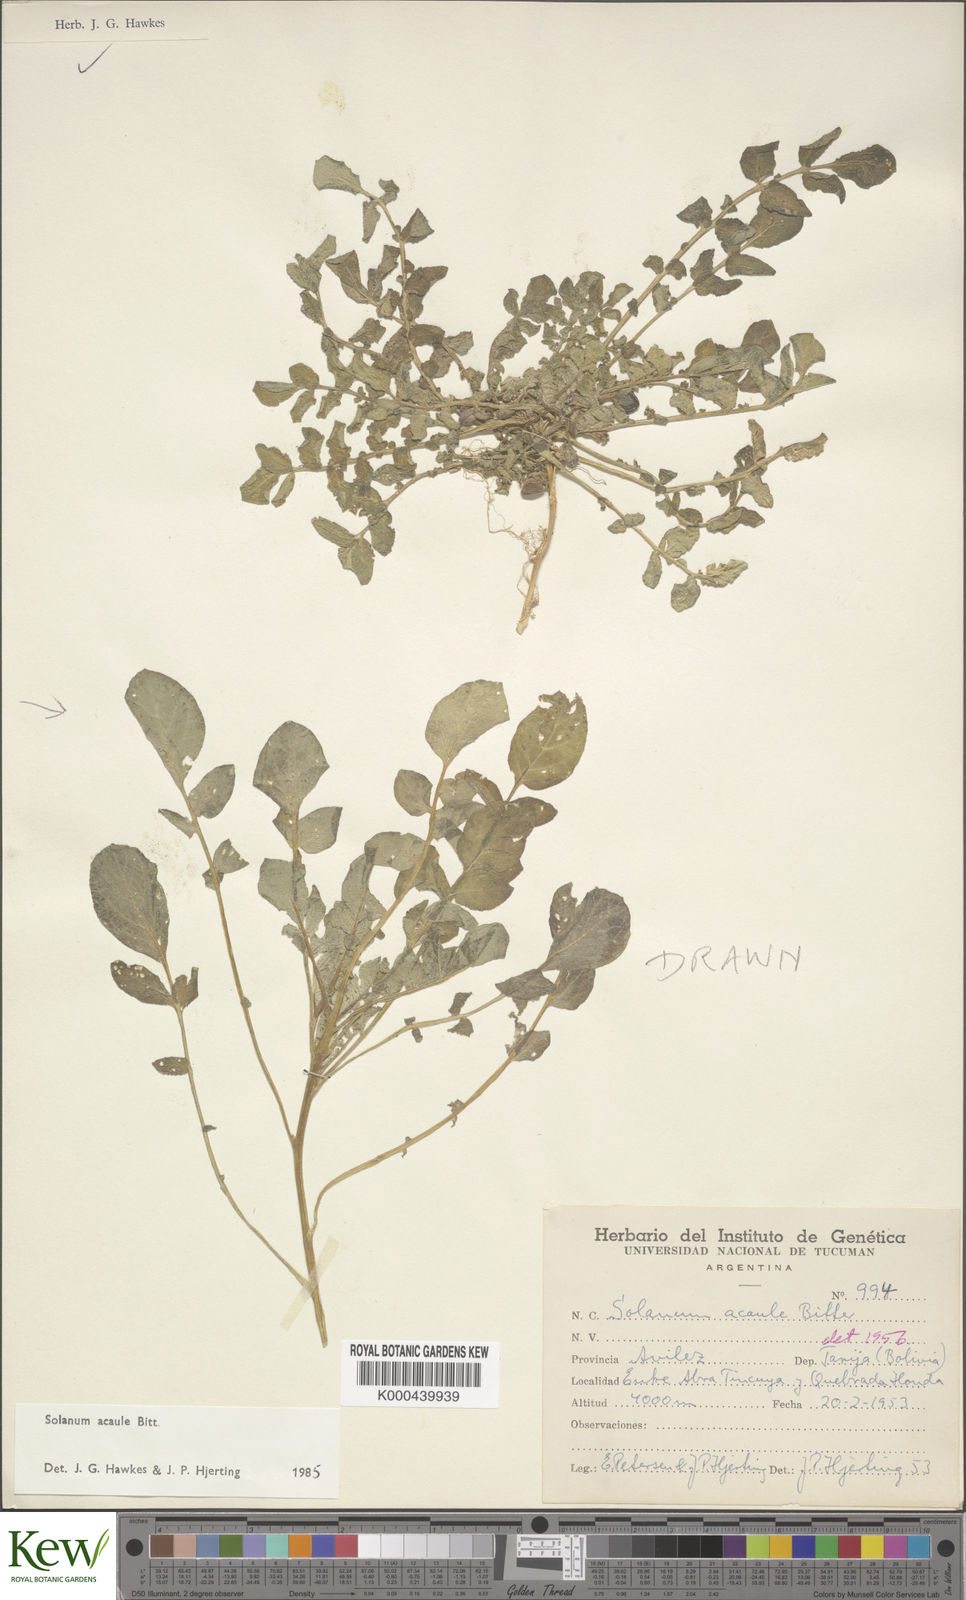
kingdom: Plantae
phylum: Tracheophyta
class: Magnoliopsida
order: Solanales
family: Solanaceae
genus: Solanum
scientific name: Solanum acaule
